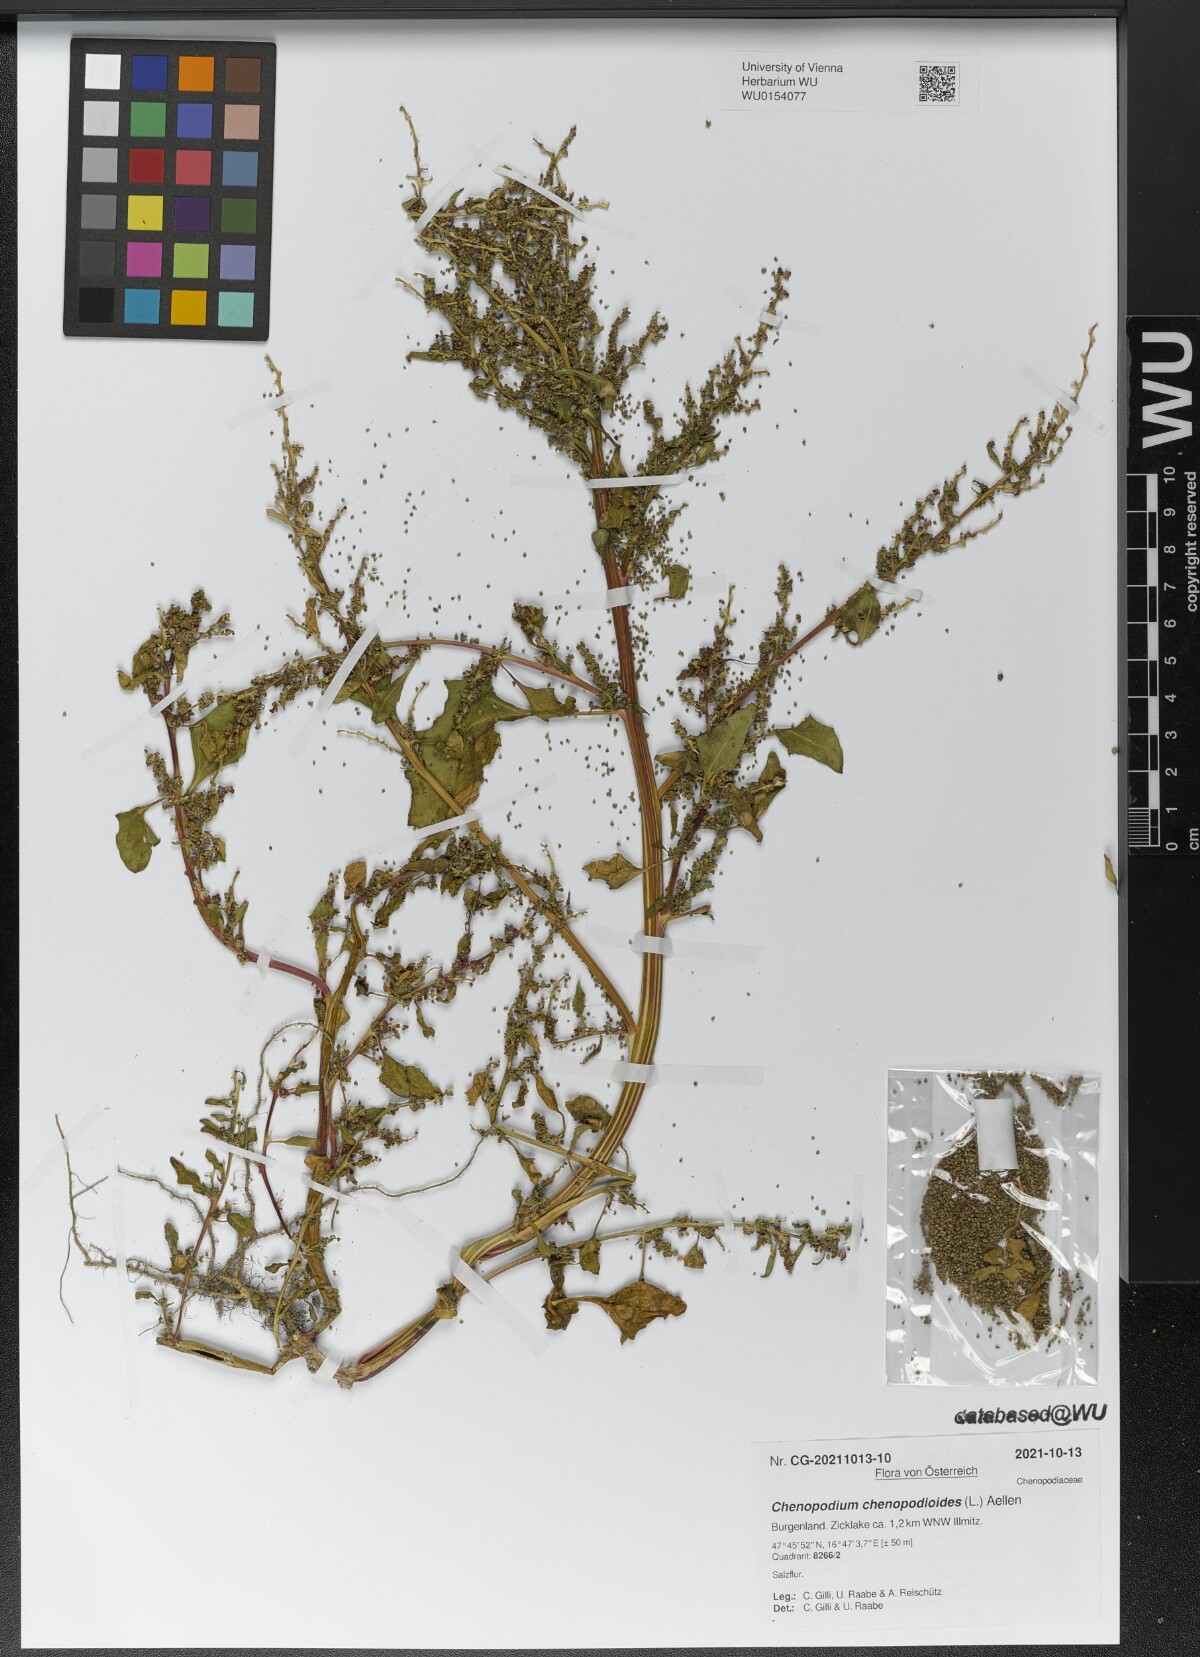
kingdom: Plantae
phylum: Tracheophyta
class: Magnoliopsida
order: Caryophyllales
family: Amaranthaceae
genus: Oxybasis
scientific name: Oxybasis chenopodioides
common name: Saltmarsh goosefoot
